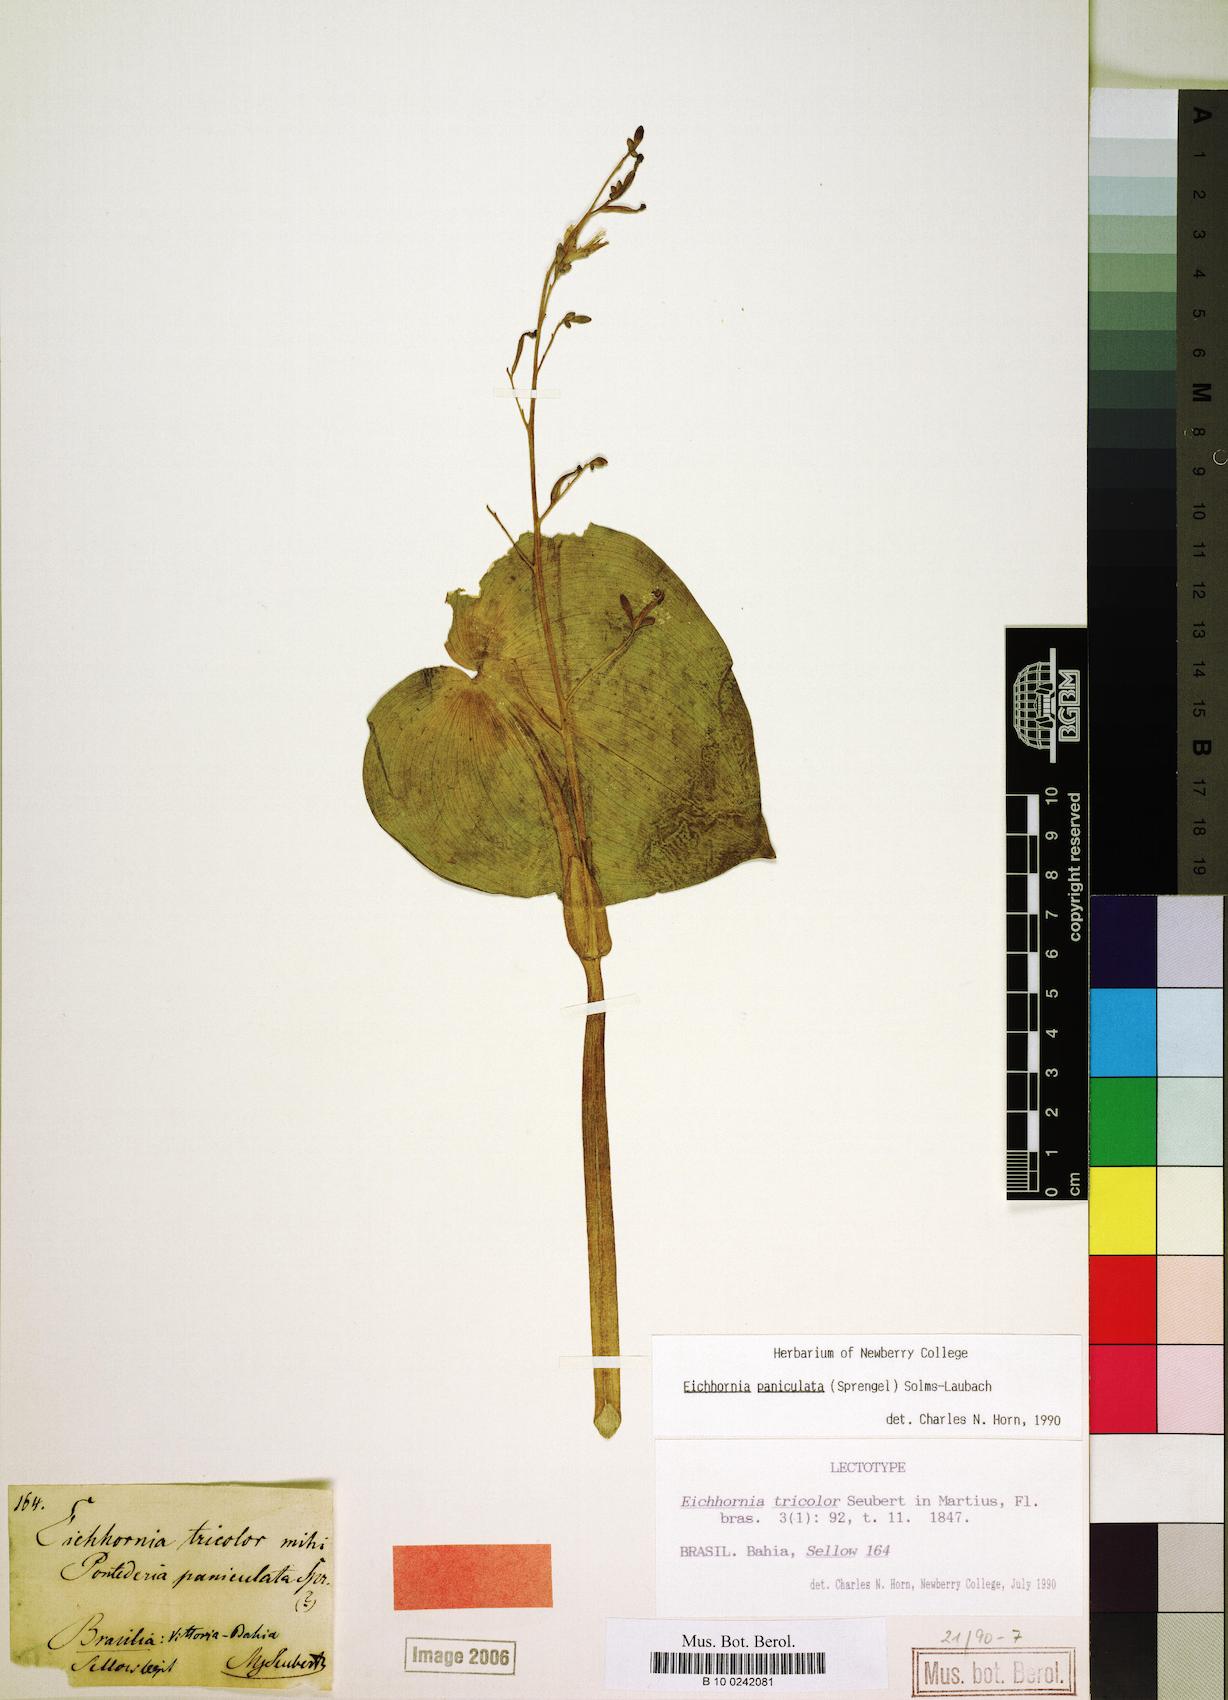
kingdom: Plantae
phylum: Tracheophyta
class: Liliopsida
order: Commelinales
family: Pontederiaceae
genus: Pontederia
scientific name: Pontederia paniculata
